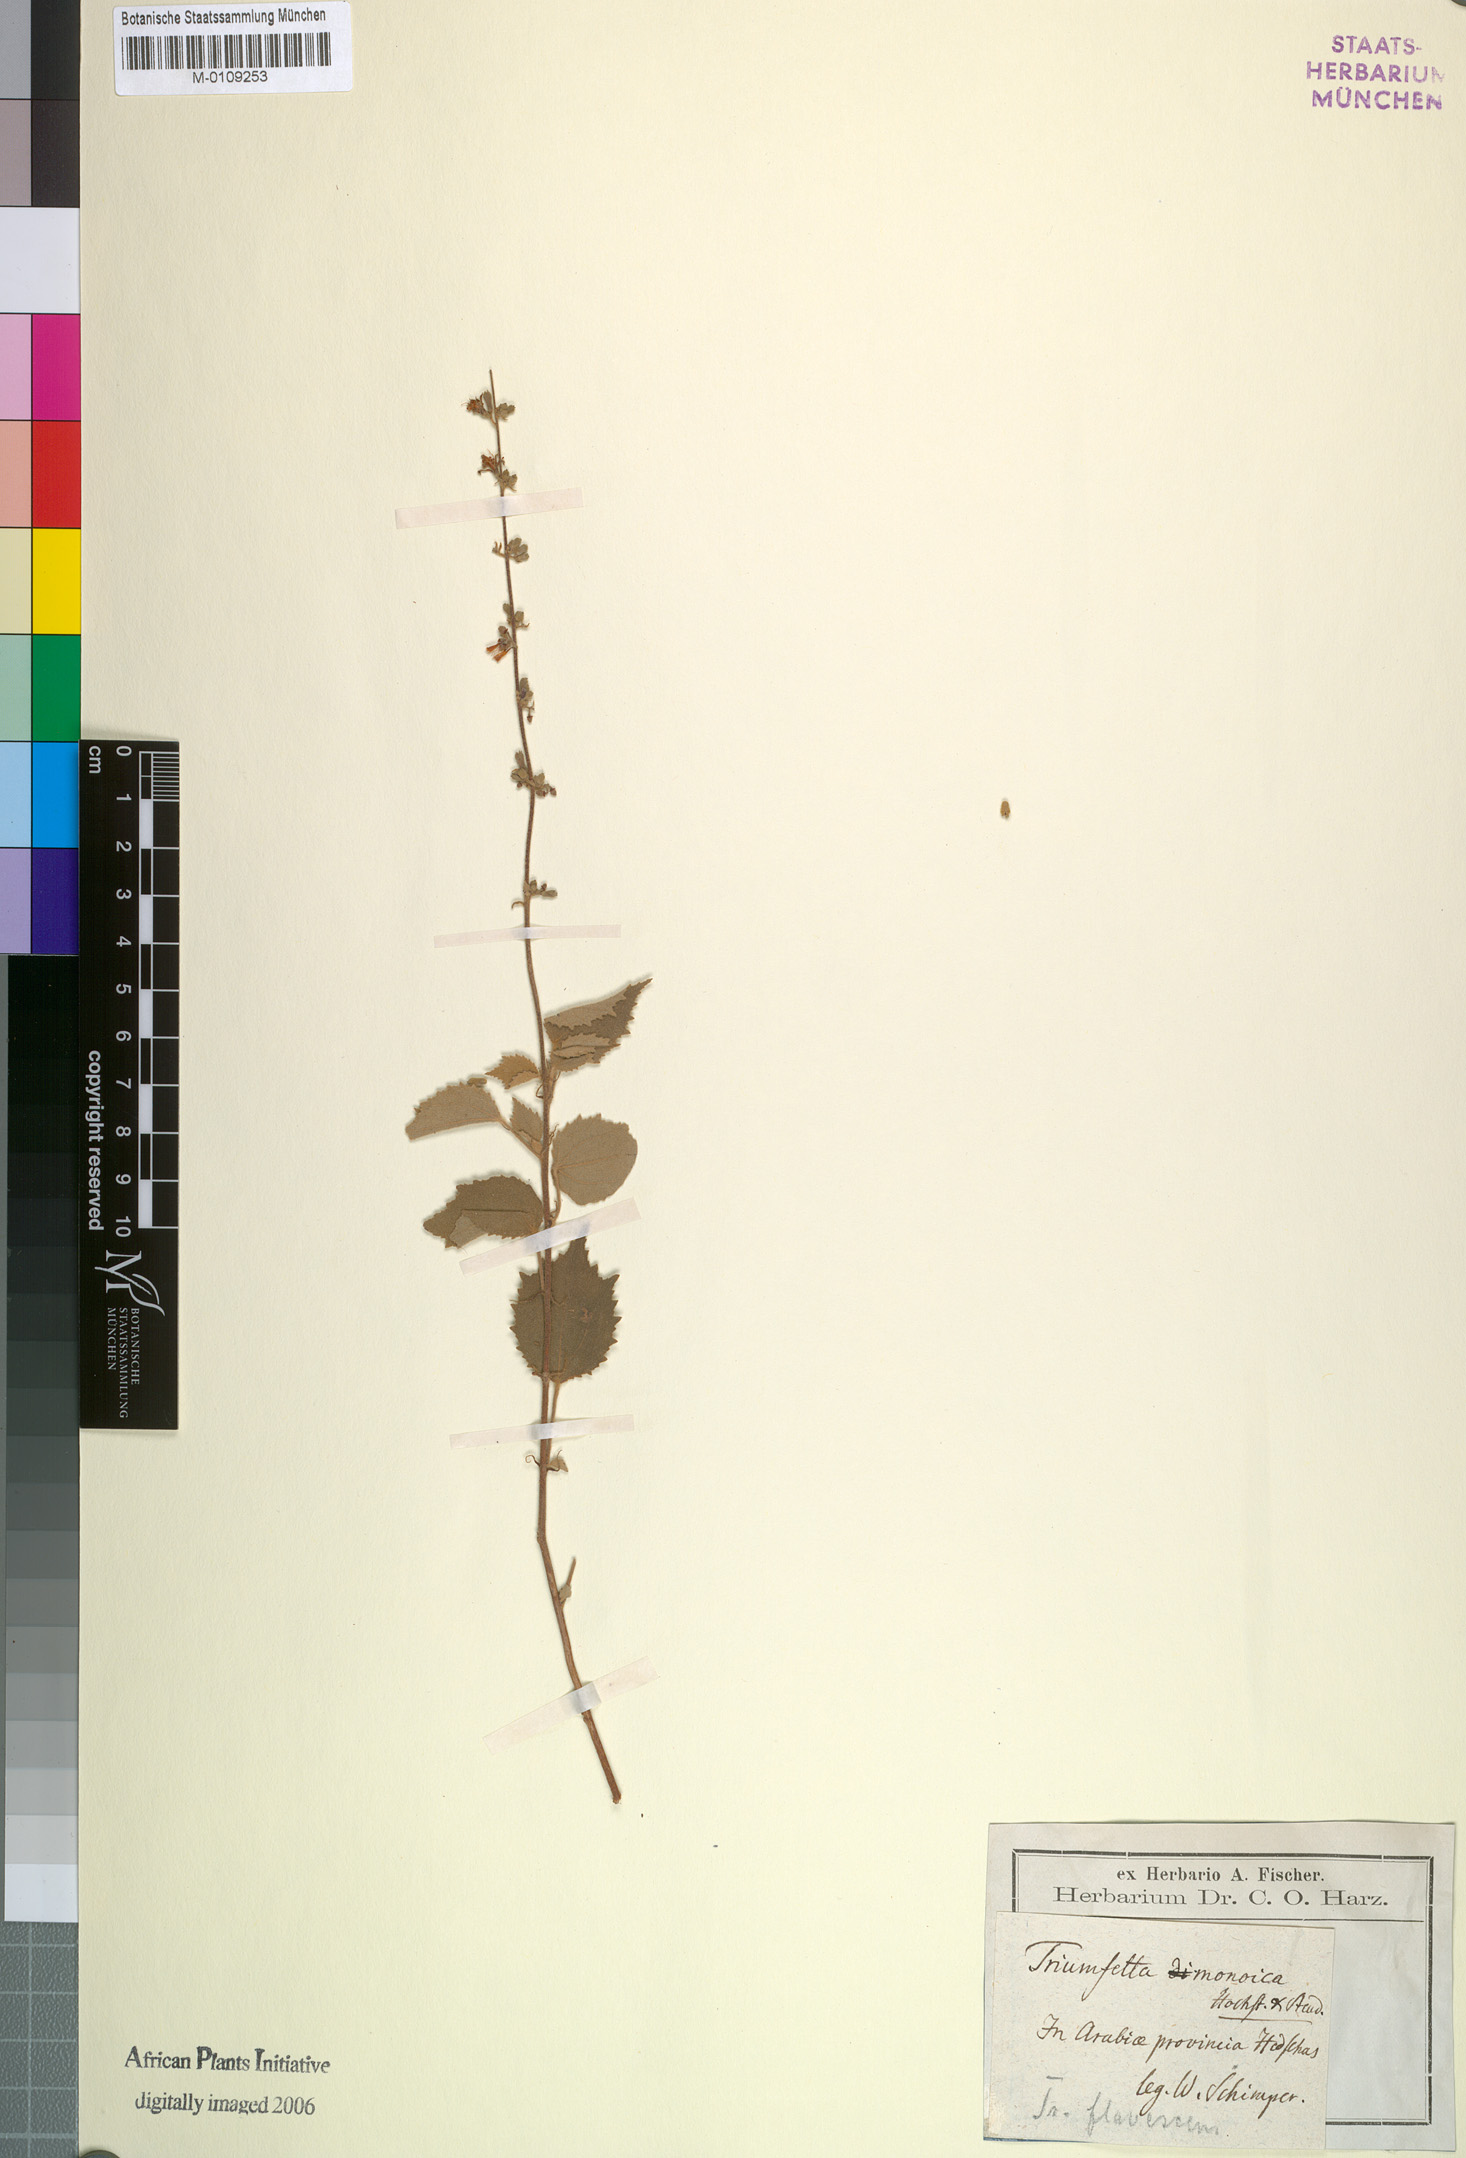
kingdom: Plantae
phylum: Tracheophyta
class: Magnoliopsida
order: Malvales
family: Malvaceae
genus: Triumfetta
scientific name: Triumfetta flavescens
